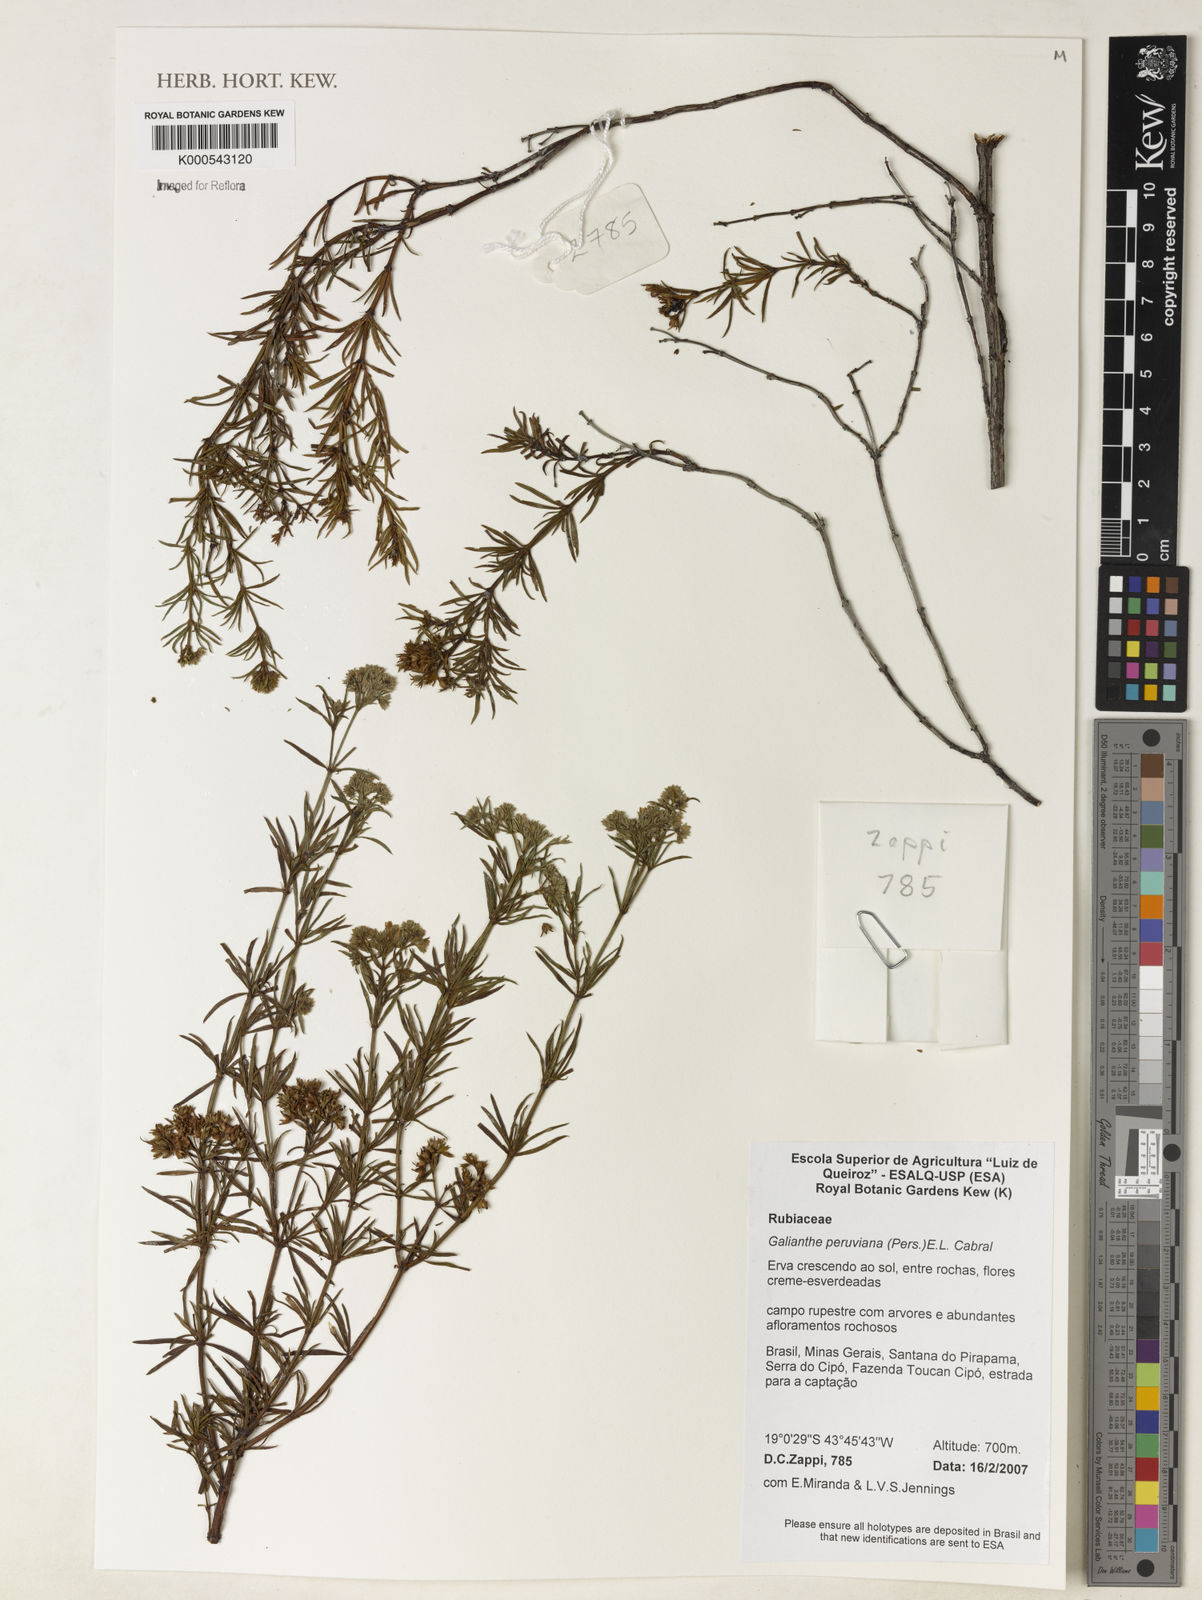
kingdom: Plantae
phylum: Tracheophyta
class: Magnoliopsida
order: Gentianales
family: Rubiaceae
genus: Galianthe
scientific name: Galianthe peruviana
